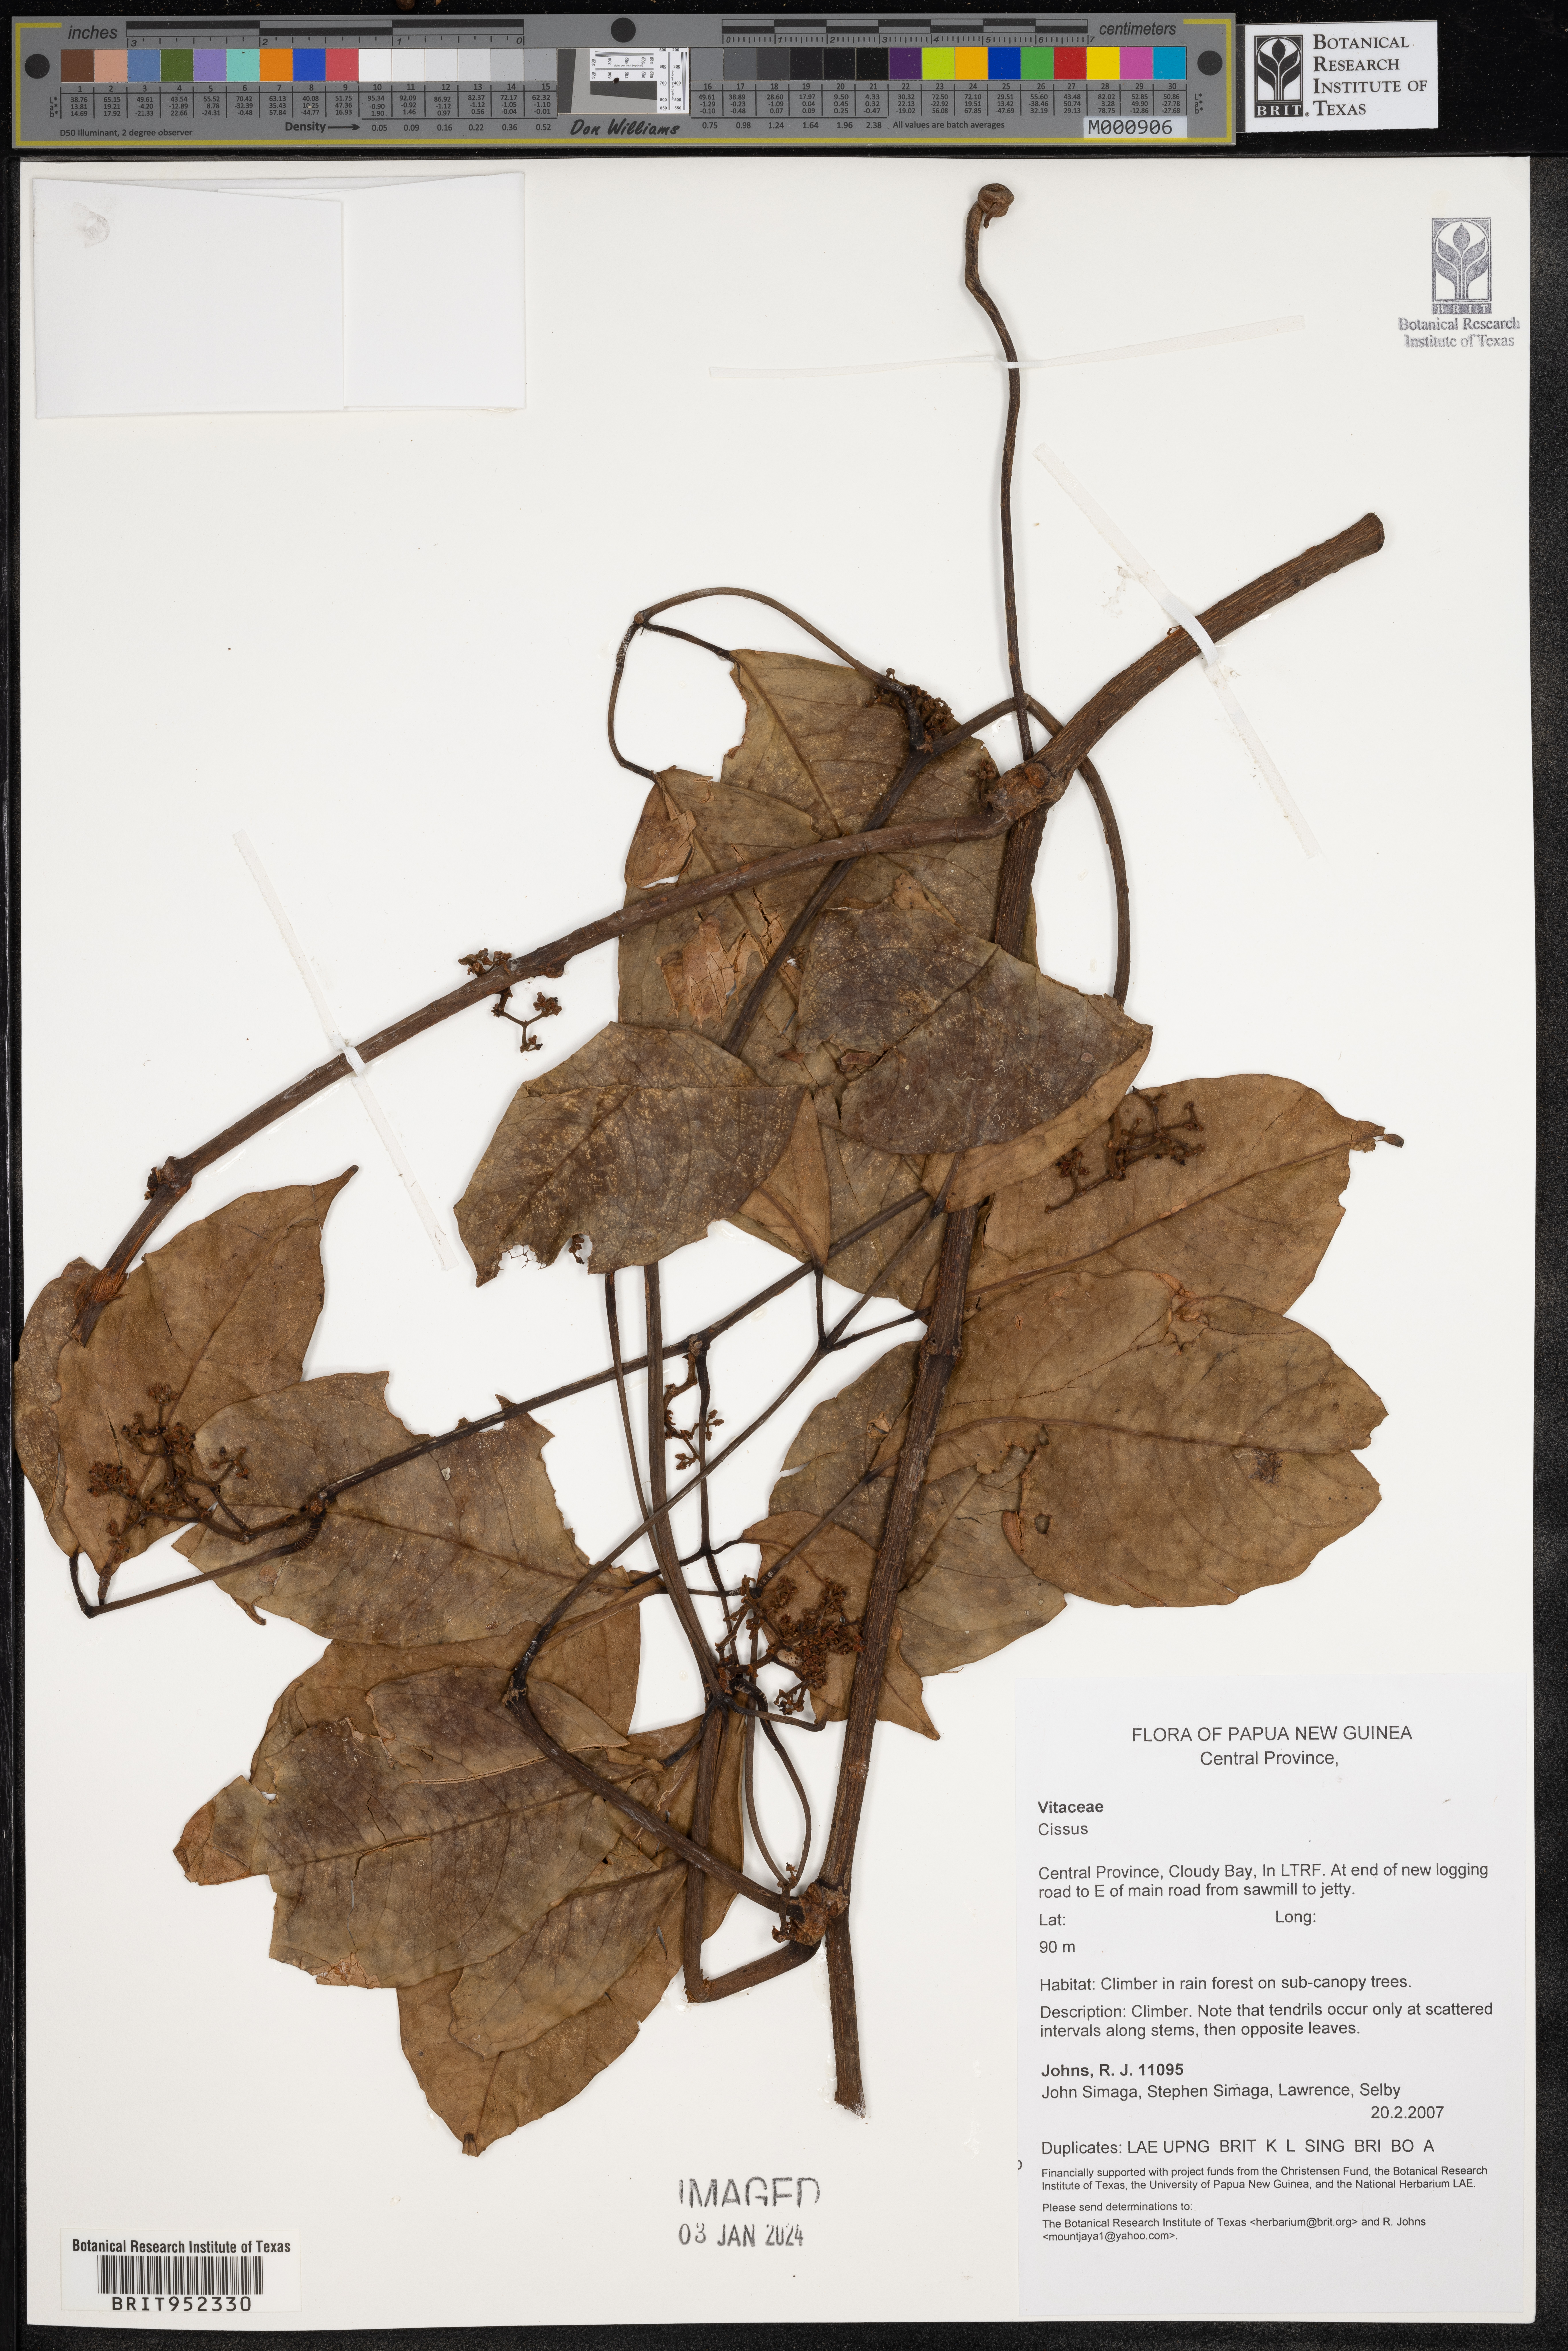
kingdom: Plantae
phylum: Tracheophyta
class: Magnoliopsida
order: Vitales
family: Vitaceae
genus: Cissus
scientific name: Cissus
